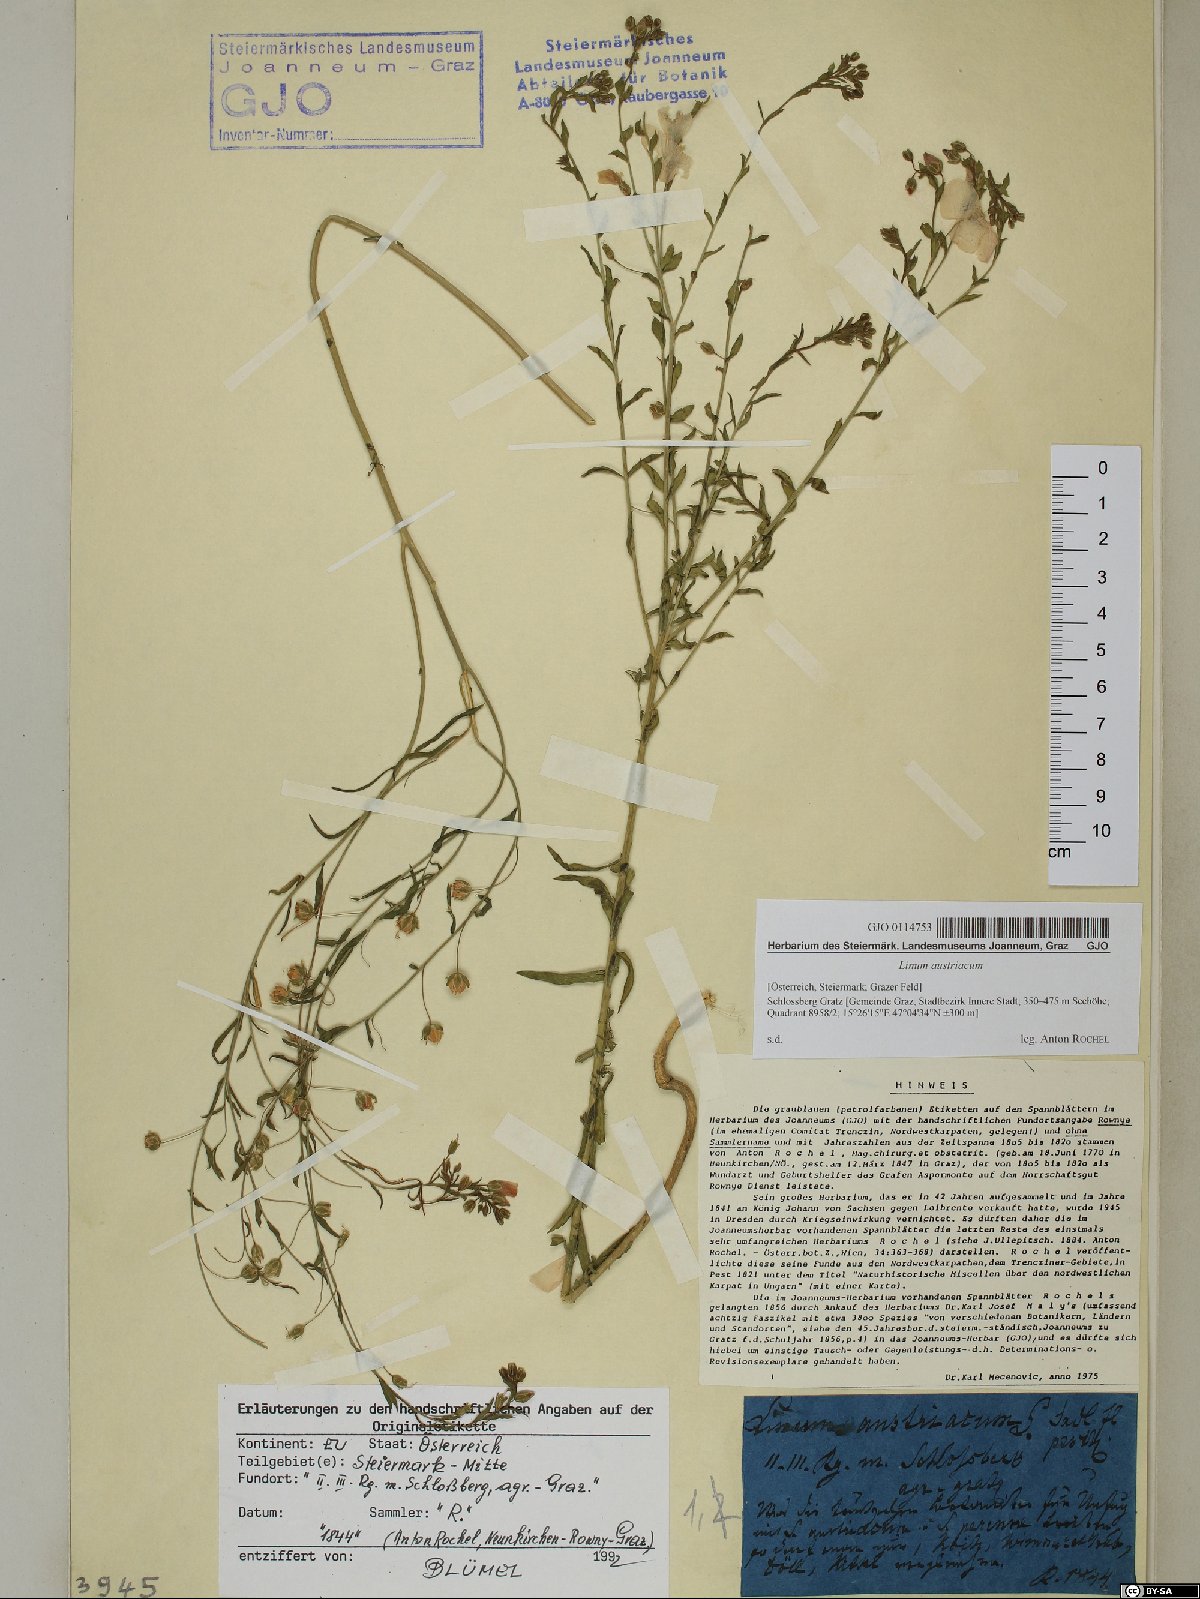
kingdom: Plantae
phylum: Tracheophyta
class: Magnoliopsida
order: Malpighiales
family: Linaceae
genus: Linum
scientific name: Linum austriacum
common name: Austrian flax
